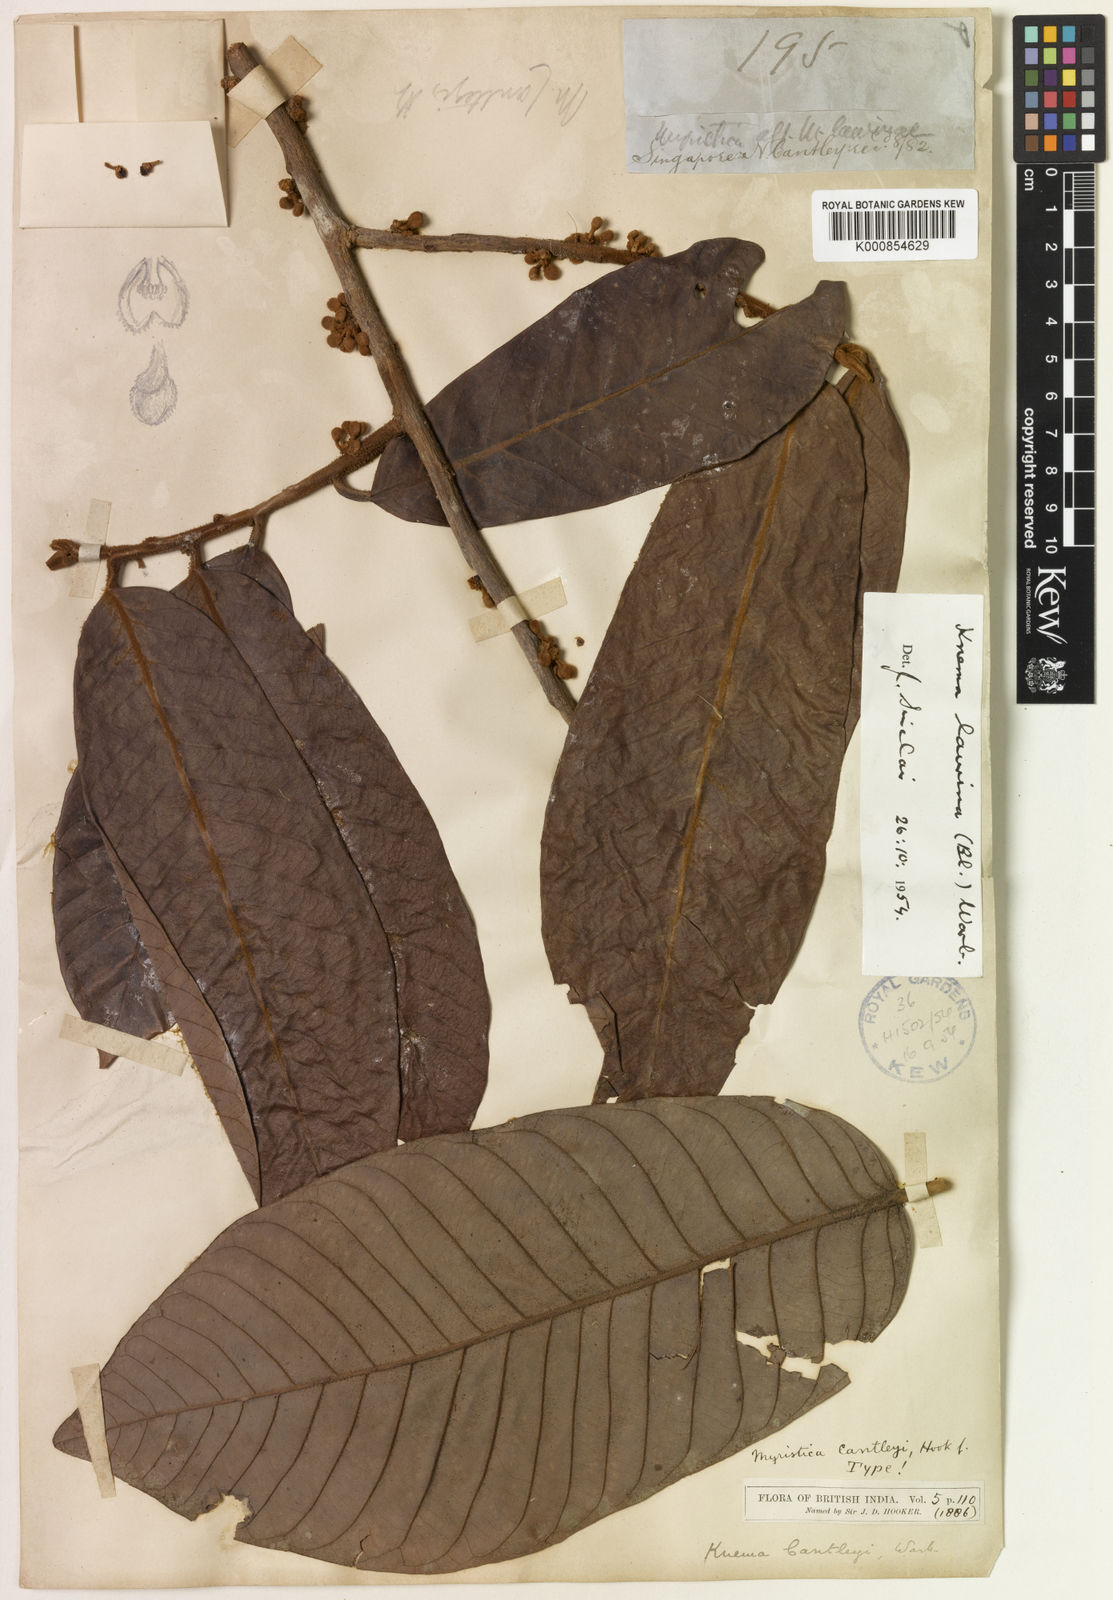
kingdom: Plantae
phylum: Tracheophyta
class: Magnoliopsida
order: Magnoliales
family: Myristicaceae
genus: Knema
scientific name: Knema laurina
